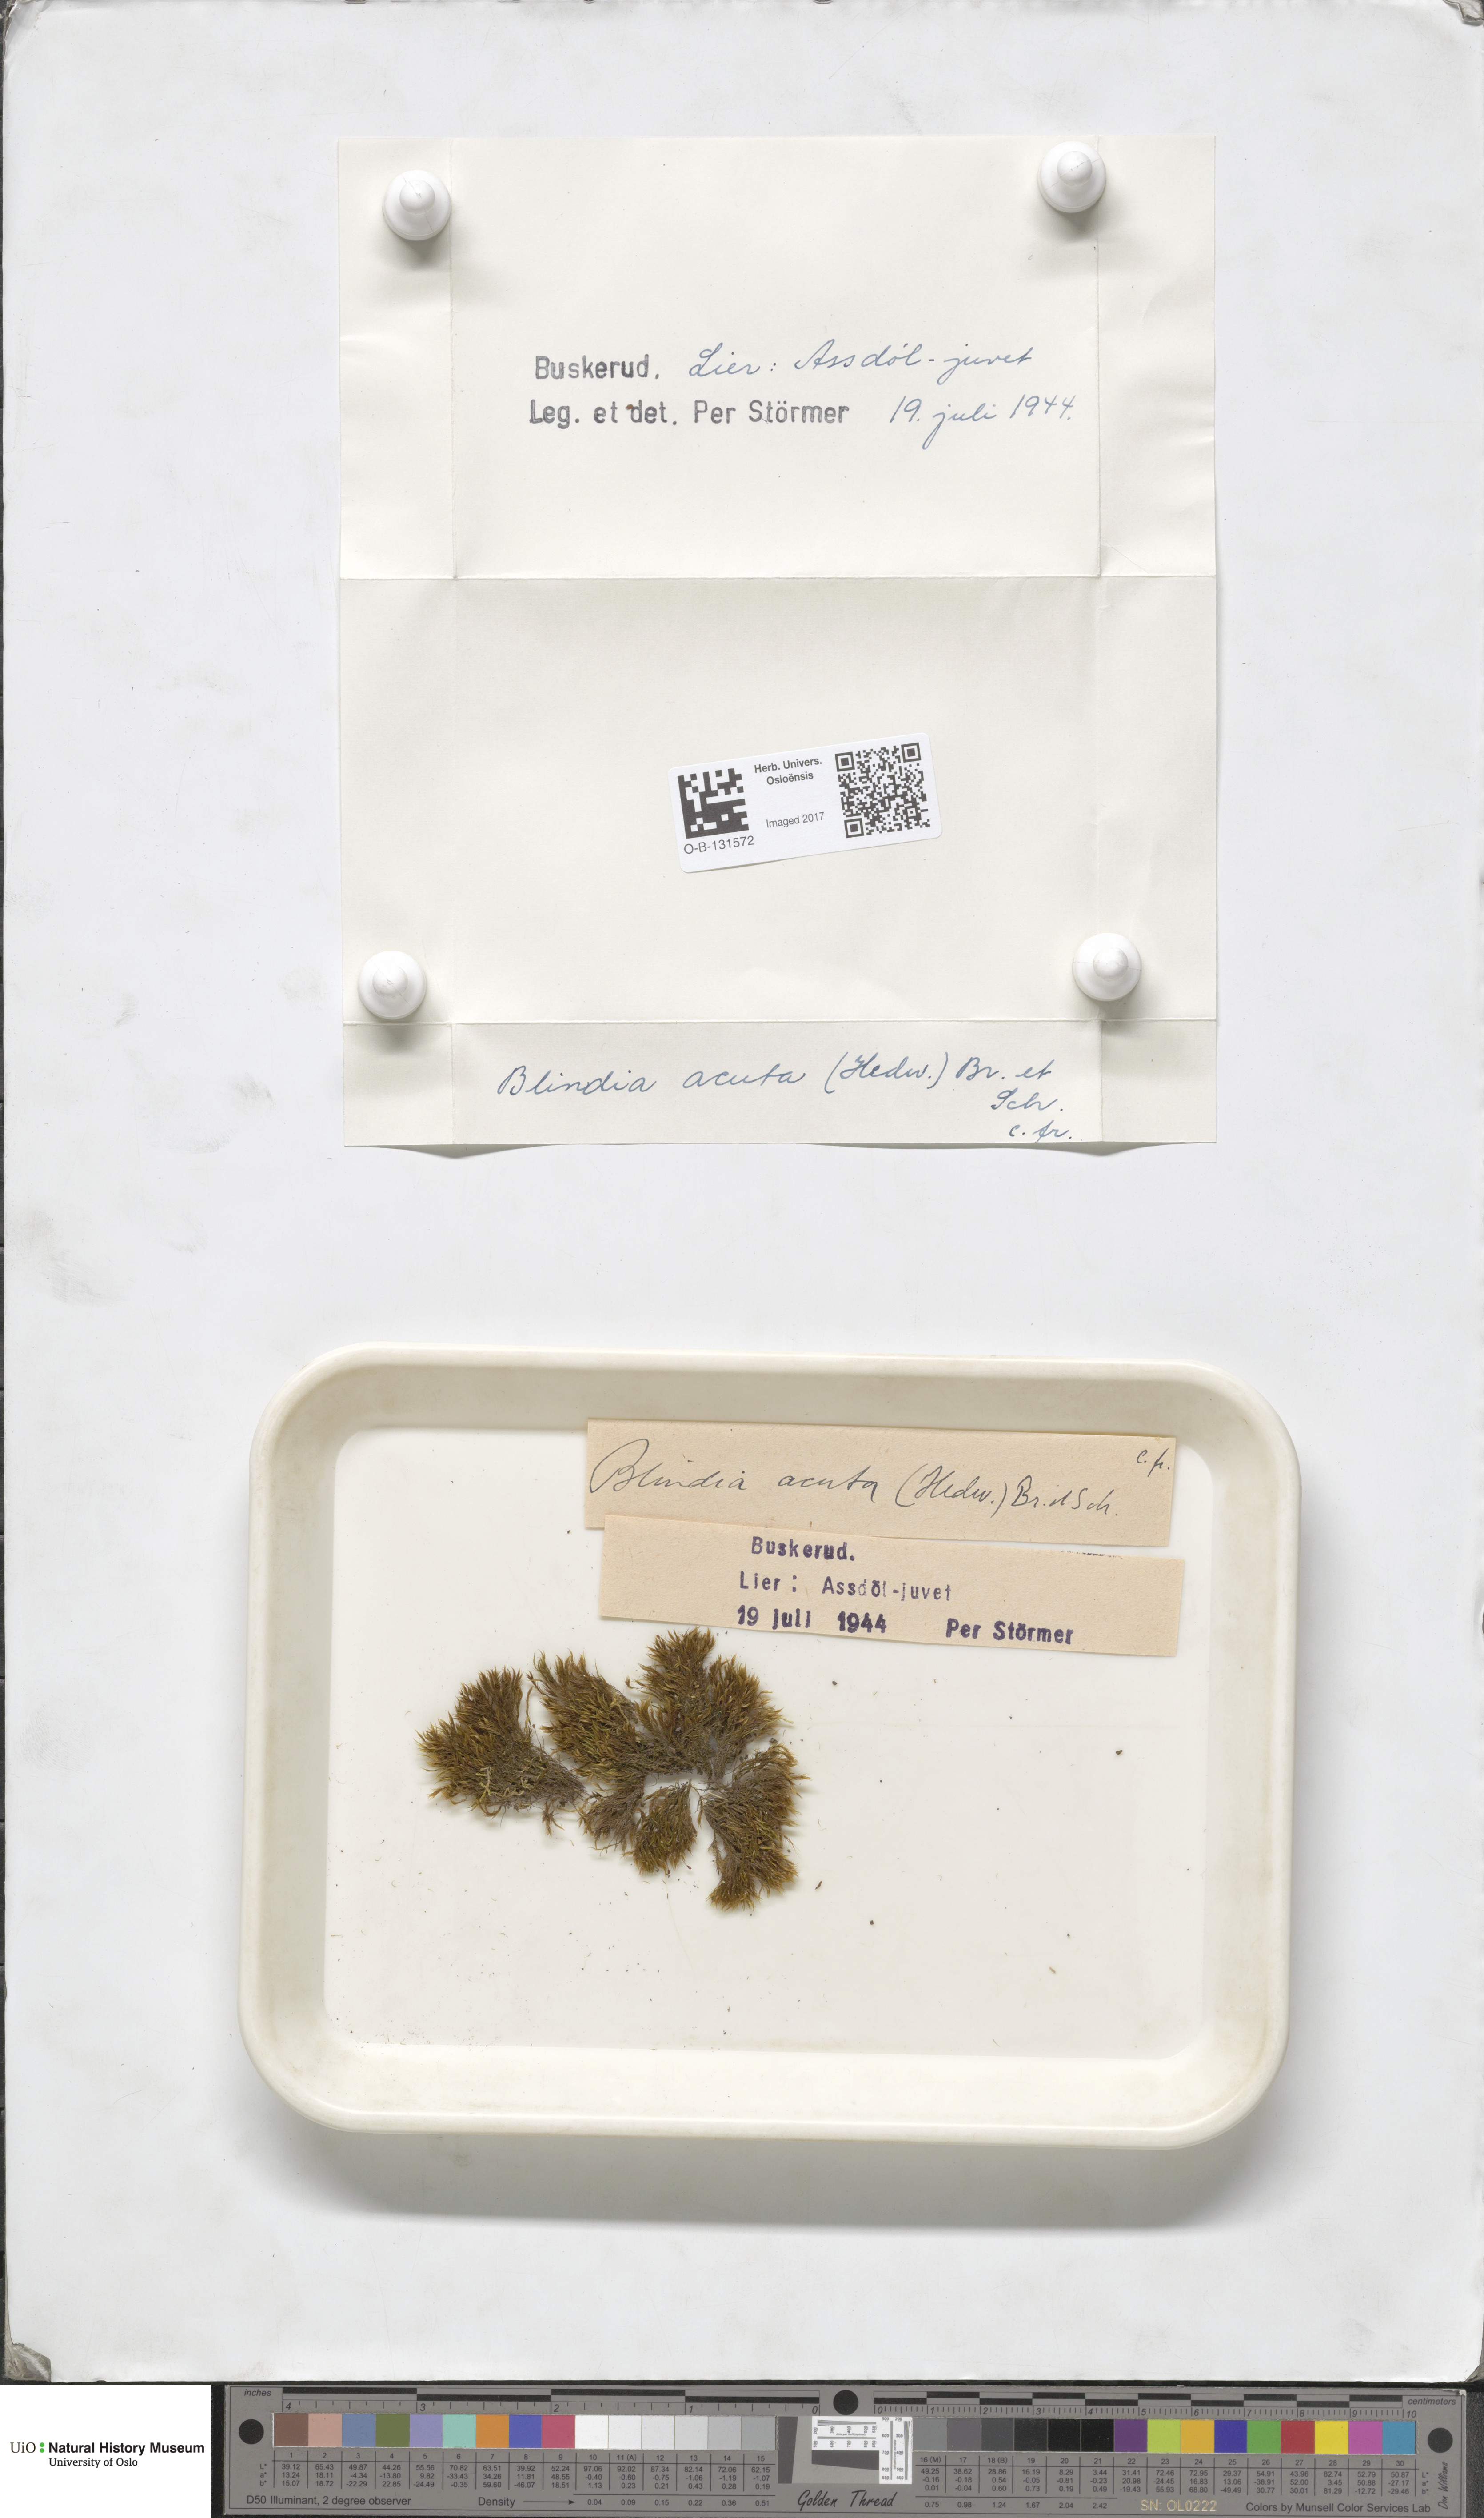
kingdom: Plantae
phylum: Bryophyta
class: Bryopsida
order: Grimmiales
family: Seligeriaceae
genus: Blindia
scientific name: Blindia acuta
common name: Sharp-leaved blind's moss
